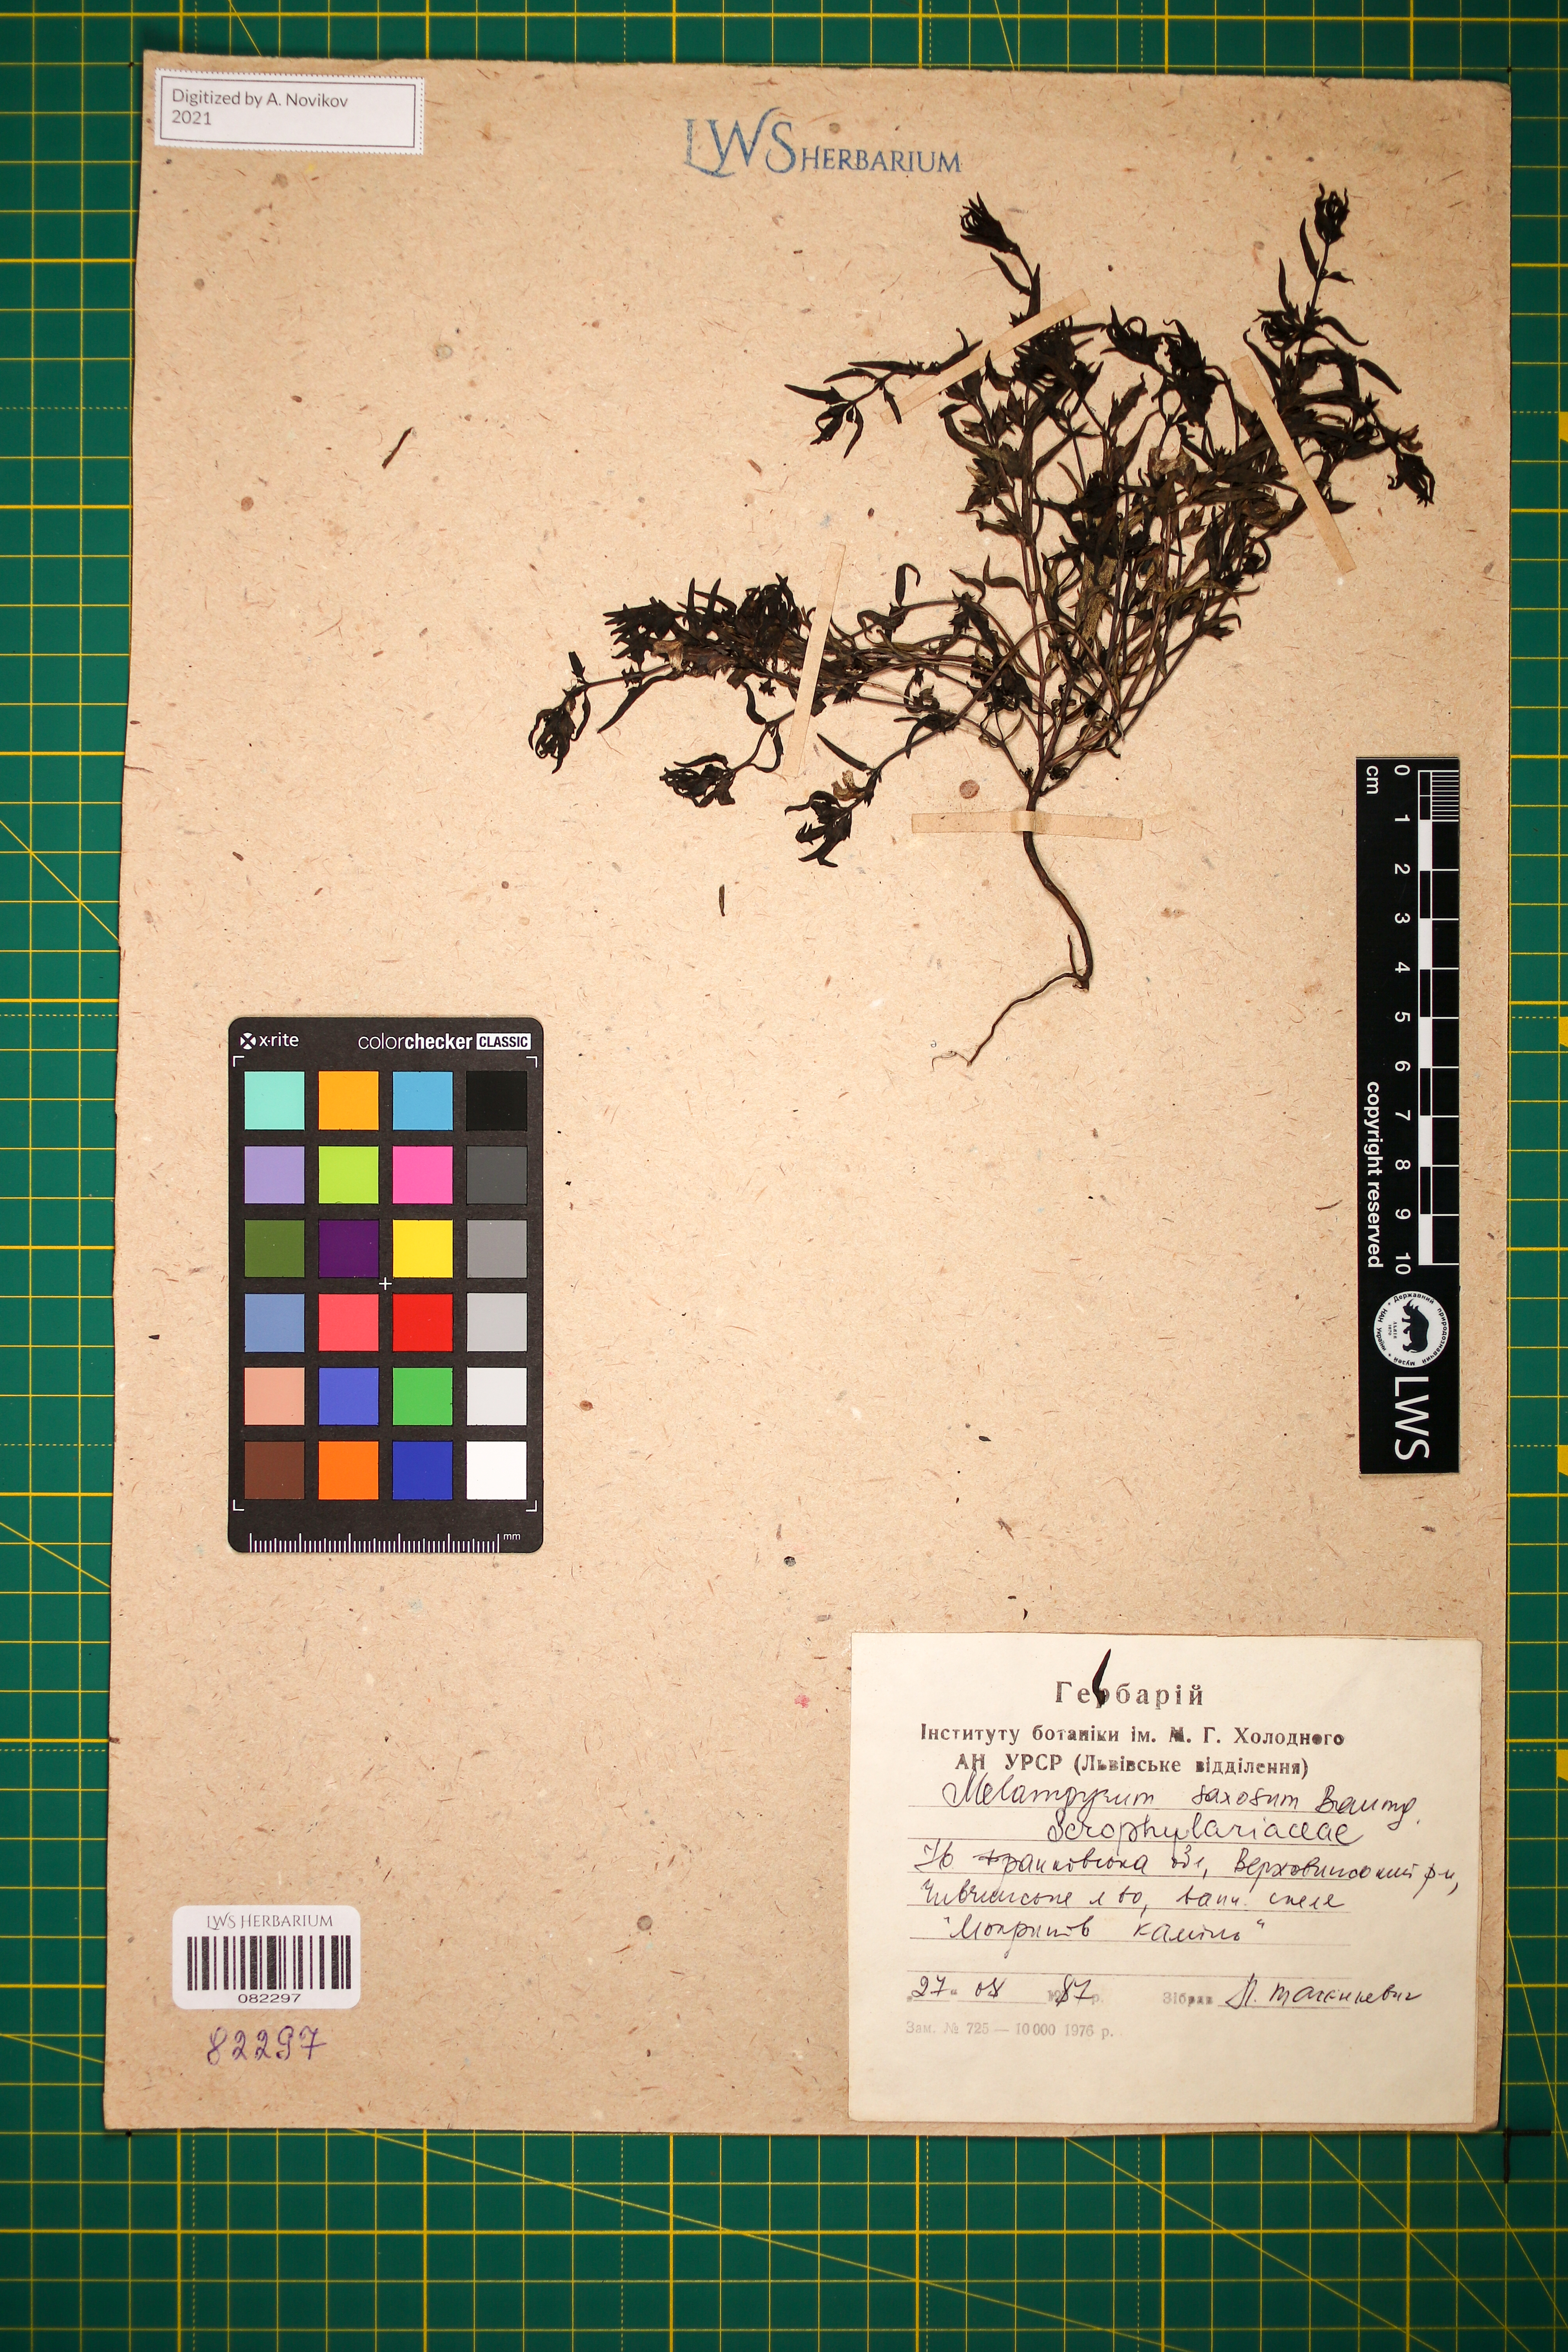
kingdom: Plantae
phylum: Tracheophyta
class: Magnoliopsida
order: Lamiales
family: Orobanchaceae
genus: Melampyrum
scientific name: Melampyrum saxosum
